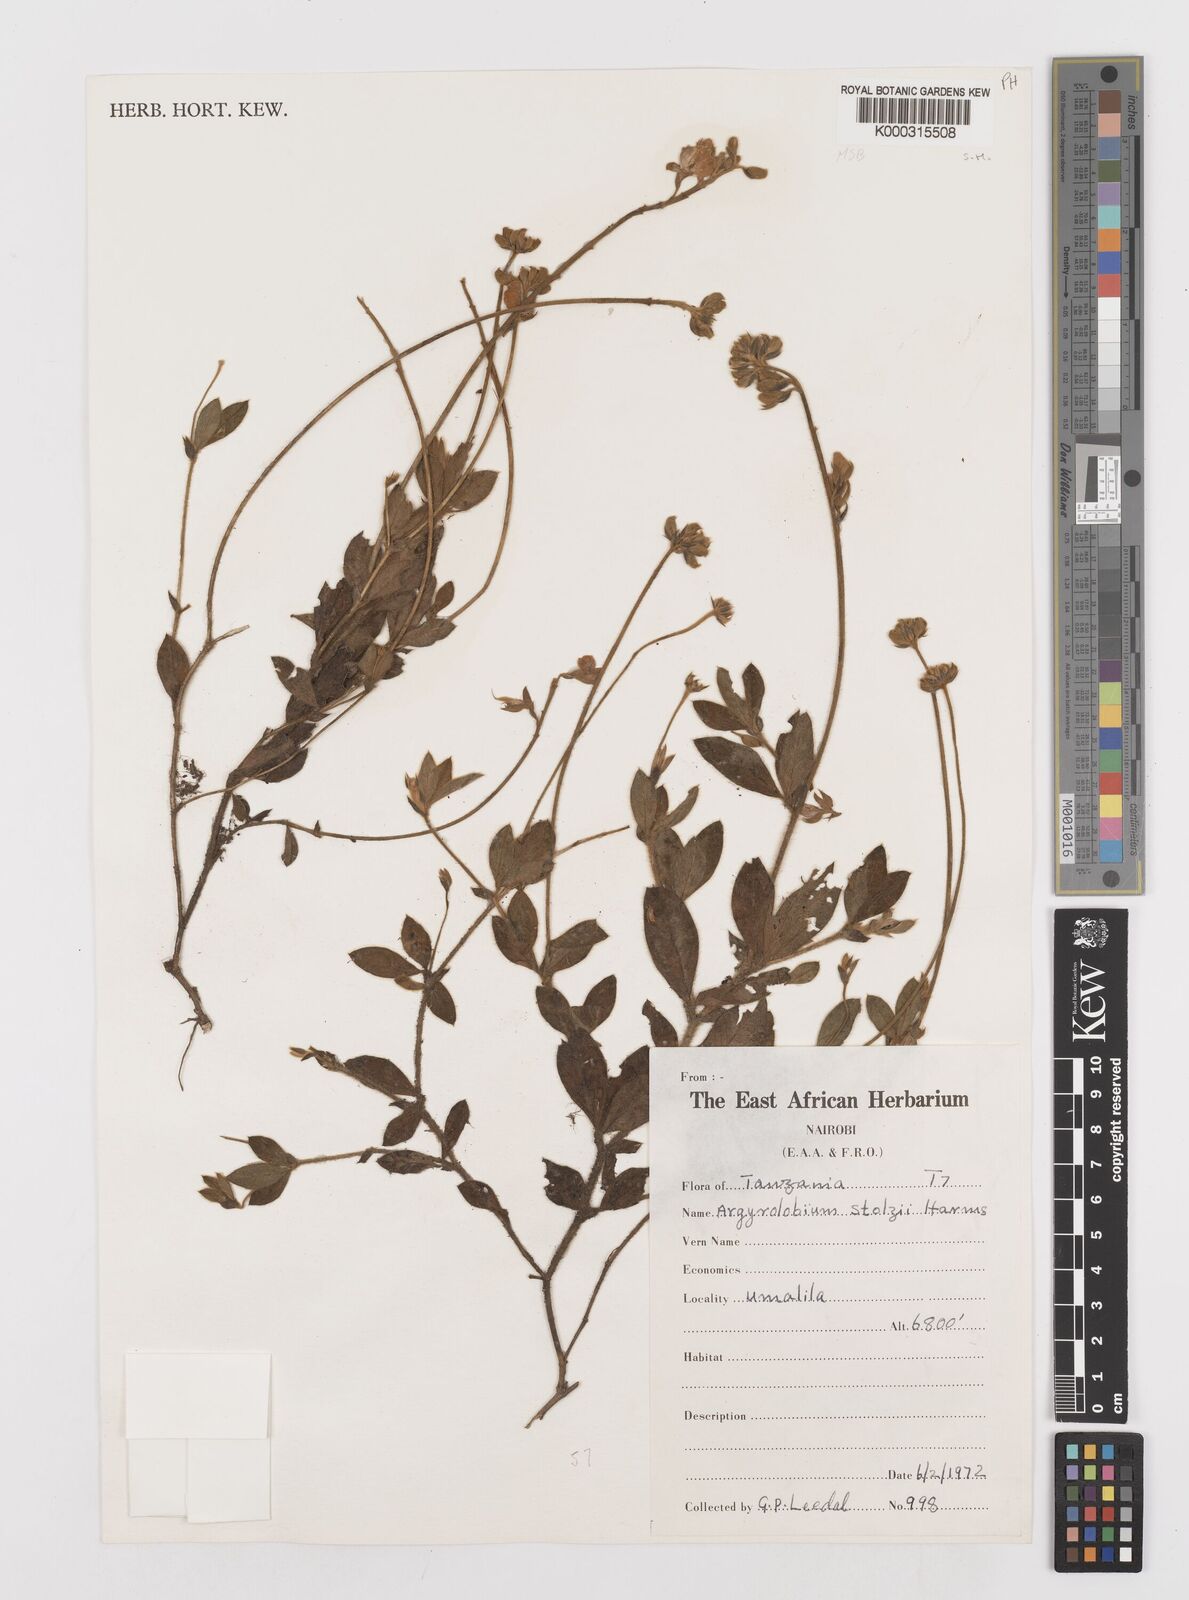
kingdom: Plantae
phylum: Tracheophyta
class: Magnoliopsida
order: Fabales
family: Fabaceae
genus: Argyrolobium
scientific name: Argyrolobium stolzii
